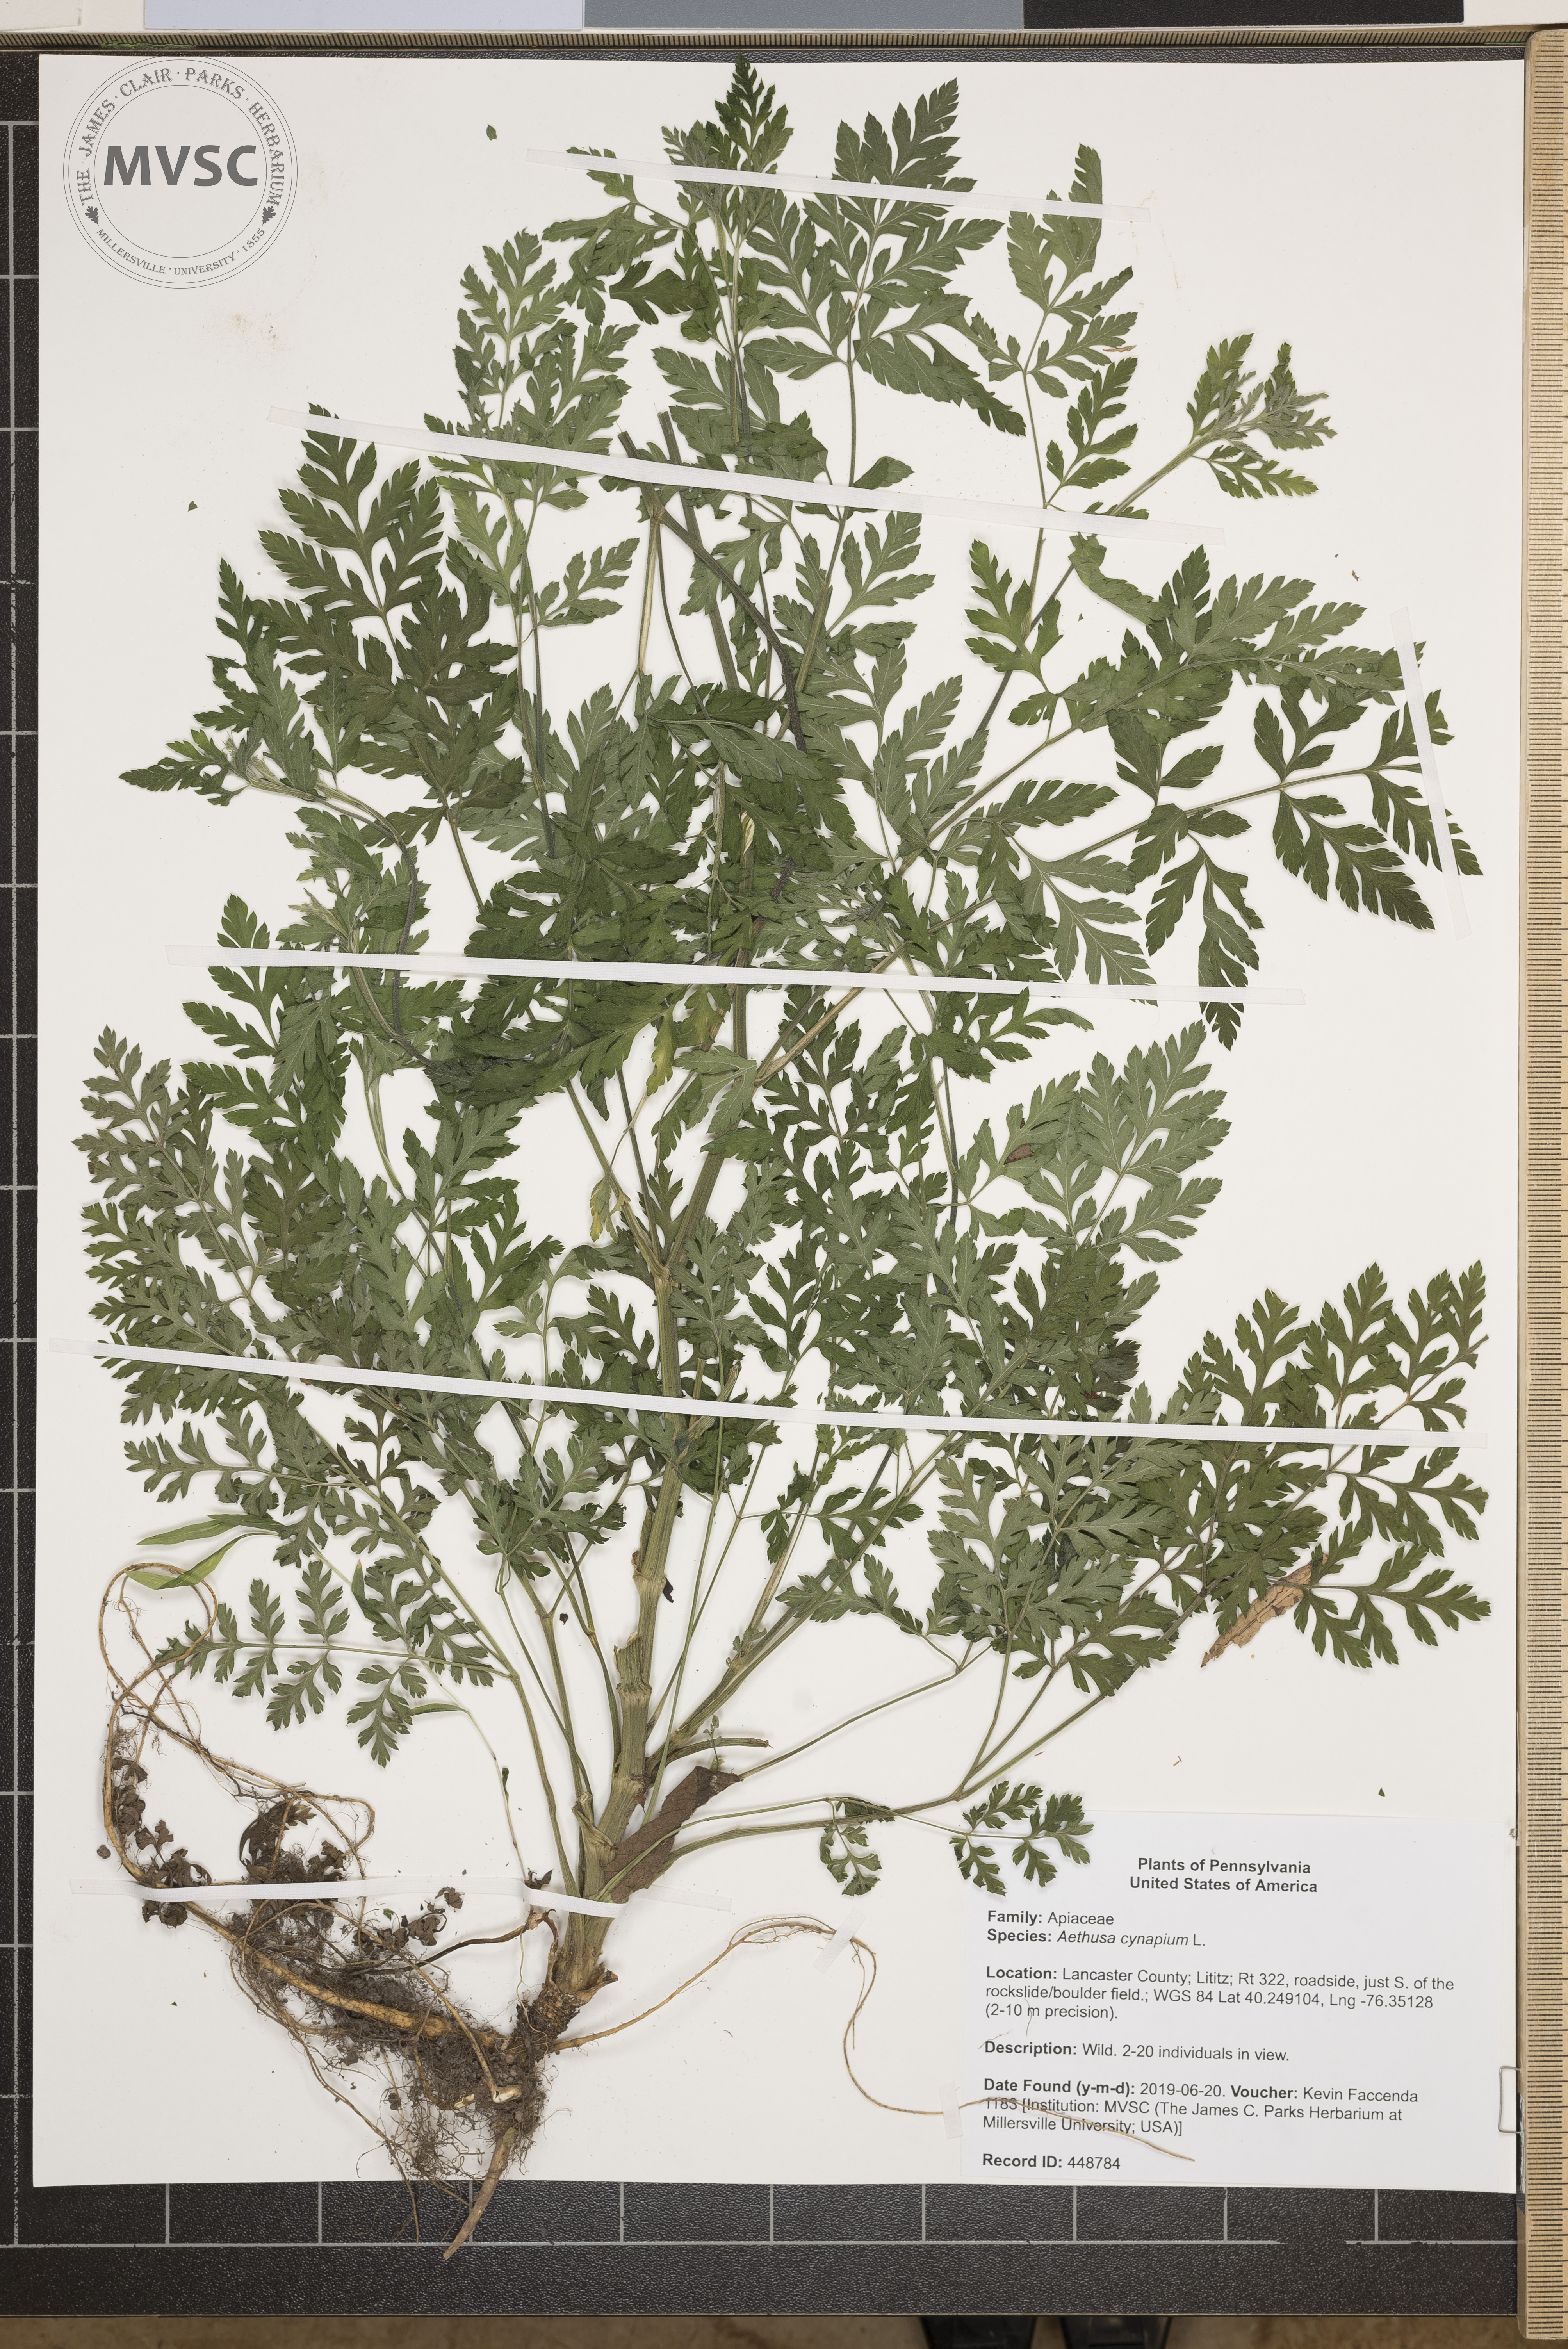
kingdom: Plantae
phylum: Tracheophyta
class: Magnoliopsida
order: Apiales
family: Apiaceae
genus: Aethusa
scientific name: Aethusa cynapium
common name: Fool's parsley
